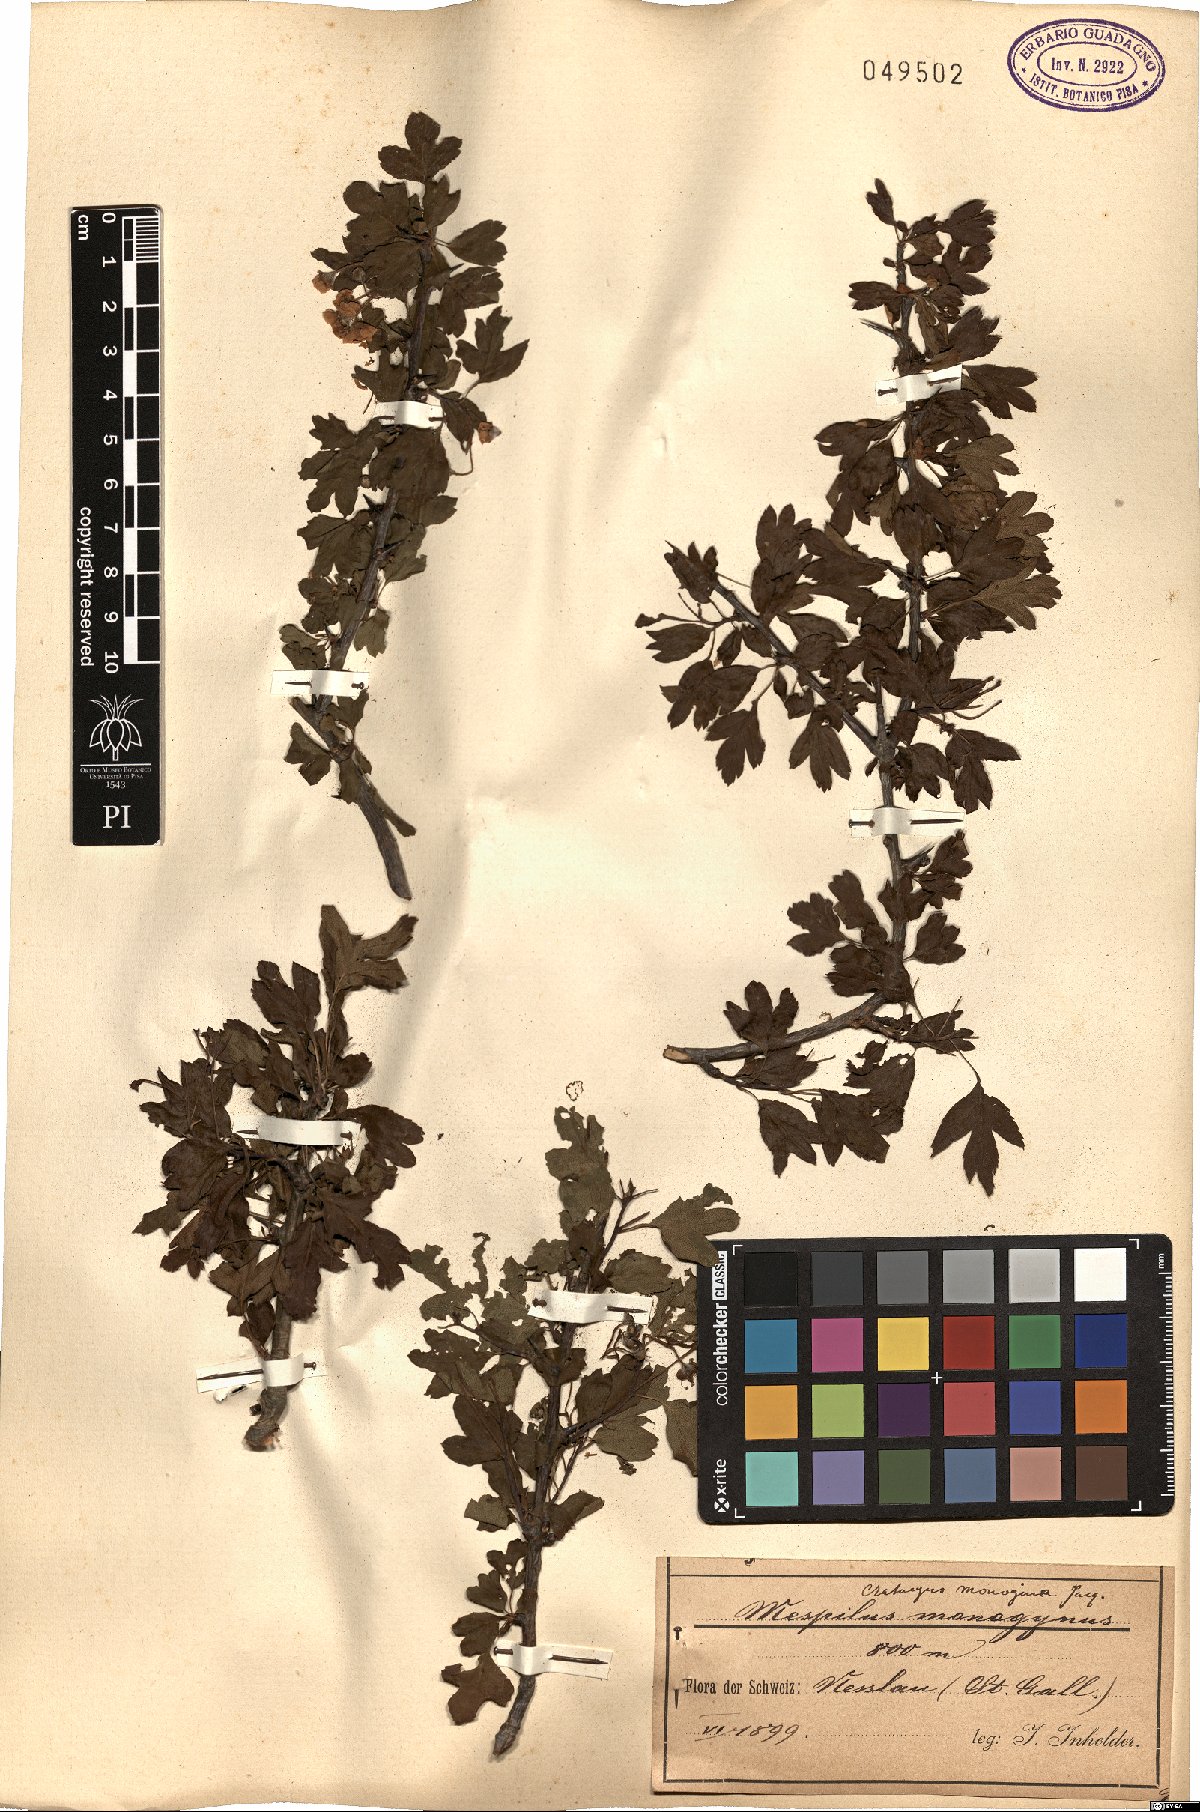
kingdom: Plantae
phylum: Tracheophyta
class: Magnoliopsida
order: Rosales
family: Rosaceae
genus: Crataegus
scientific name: Crataegus monogyna
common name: Hawthorn
